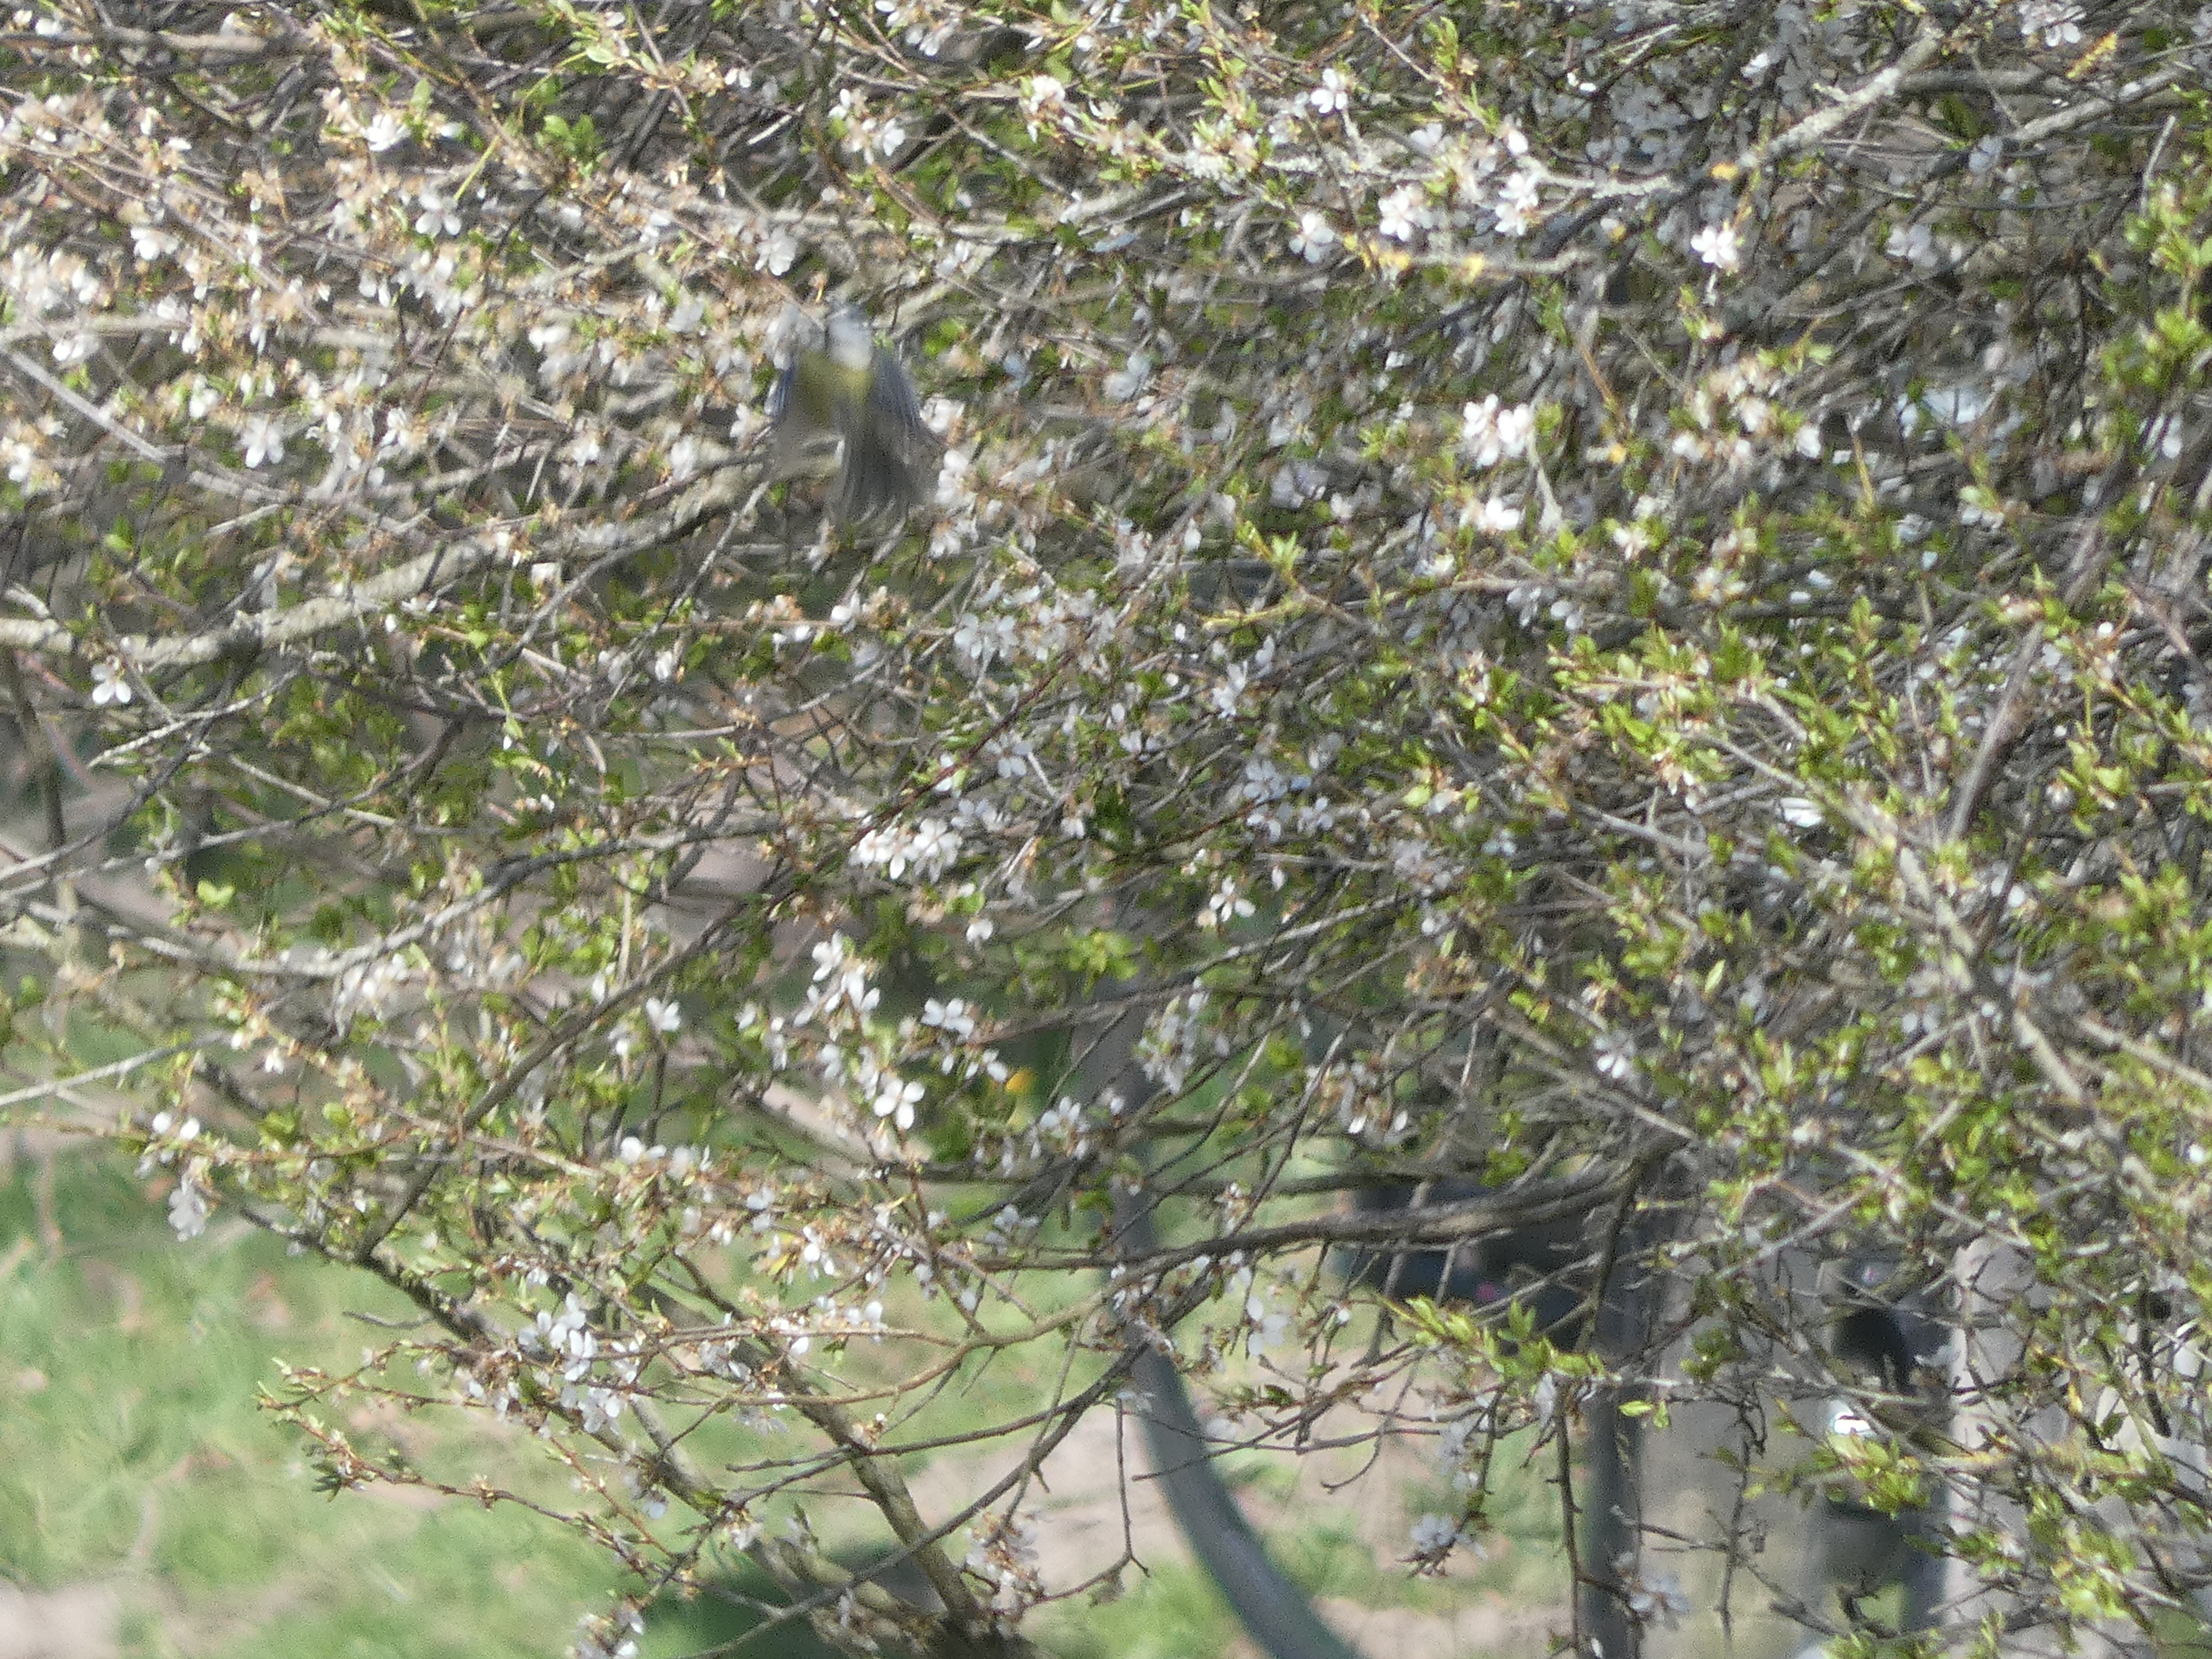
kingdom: Animalia
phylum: Chordata
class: Aves
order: Passeriformes
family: Paridae
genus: Cyanistes
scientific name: Cyanistes caeruleus
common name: Blåmejse
